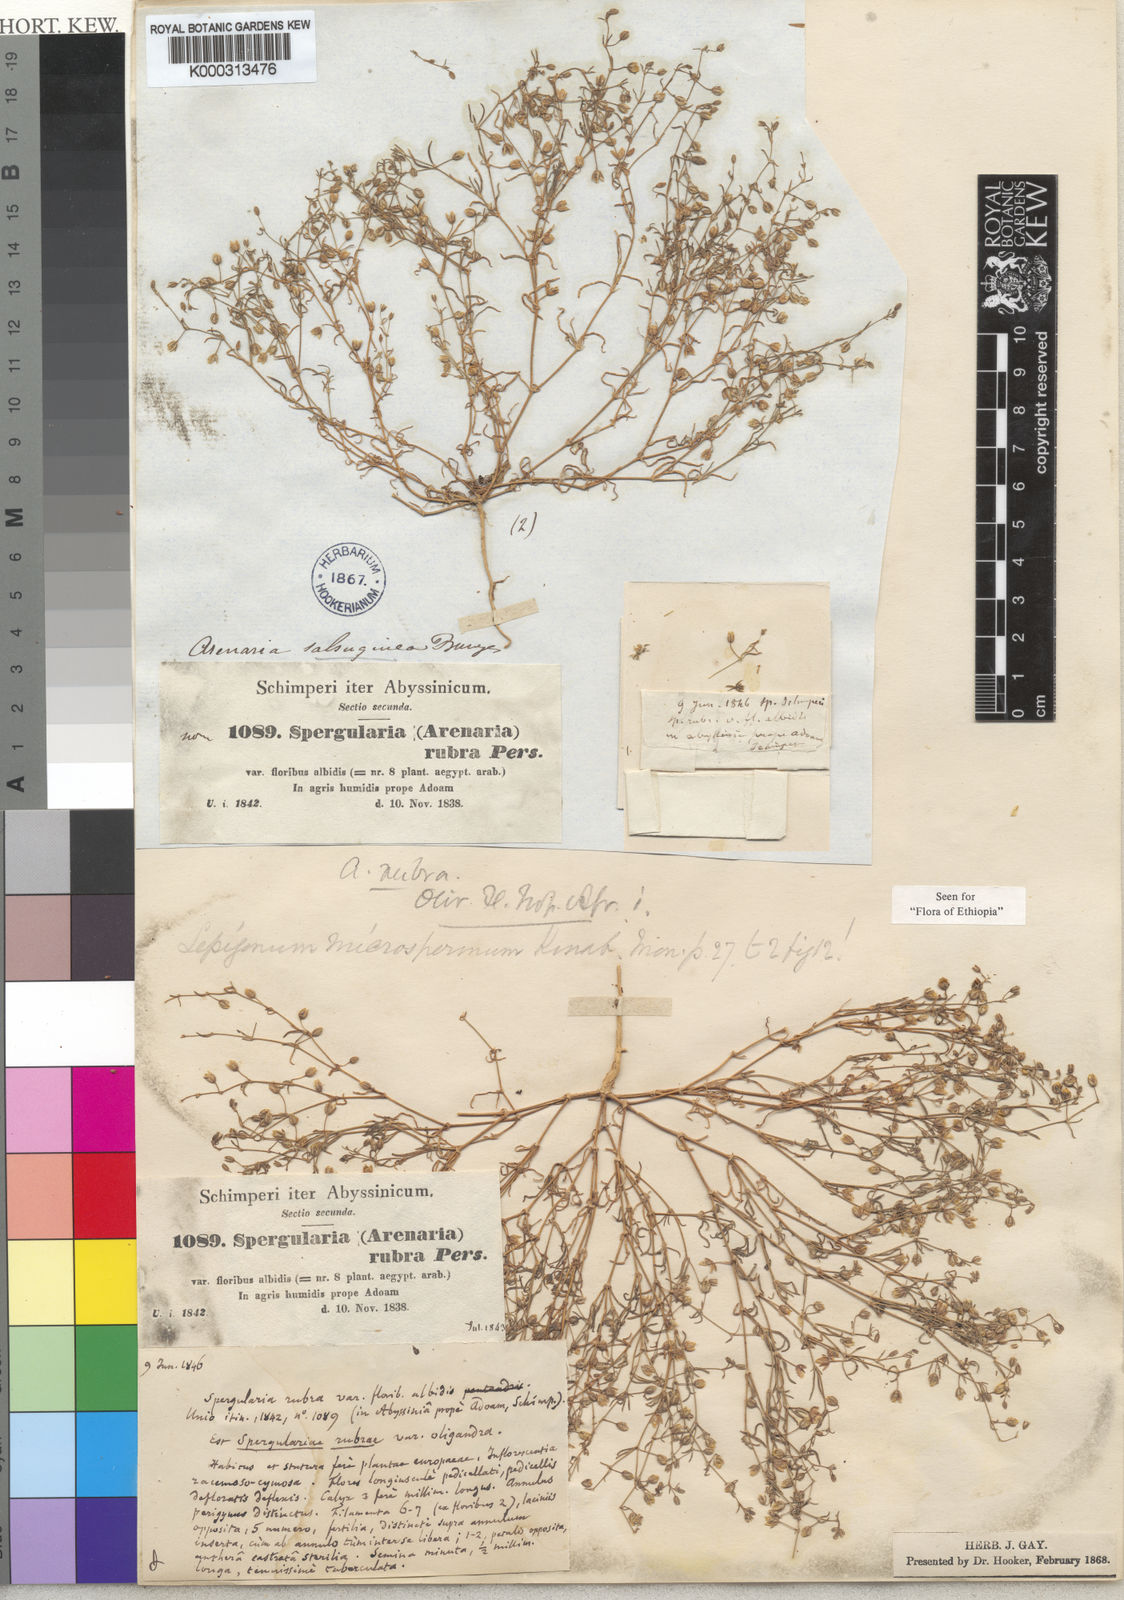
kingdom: Plantae
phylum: Tracheophyta
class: Magnoliopsida
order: Caryophyllales
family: Caryophyllaceae
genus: Spergularia
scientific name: Spergularia
